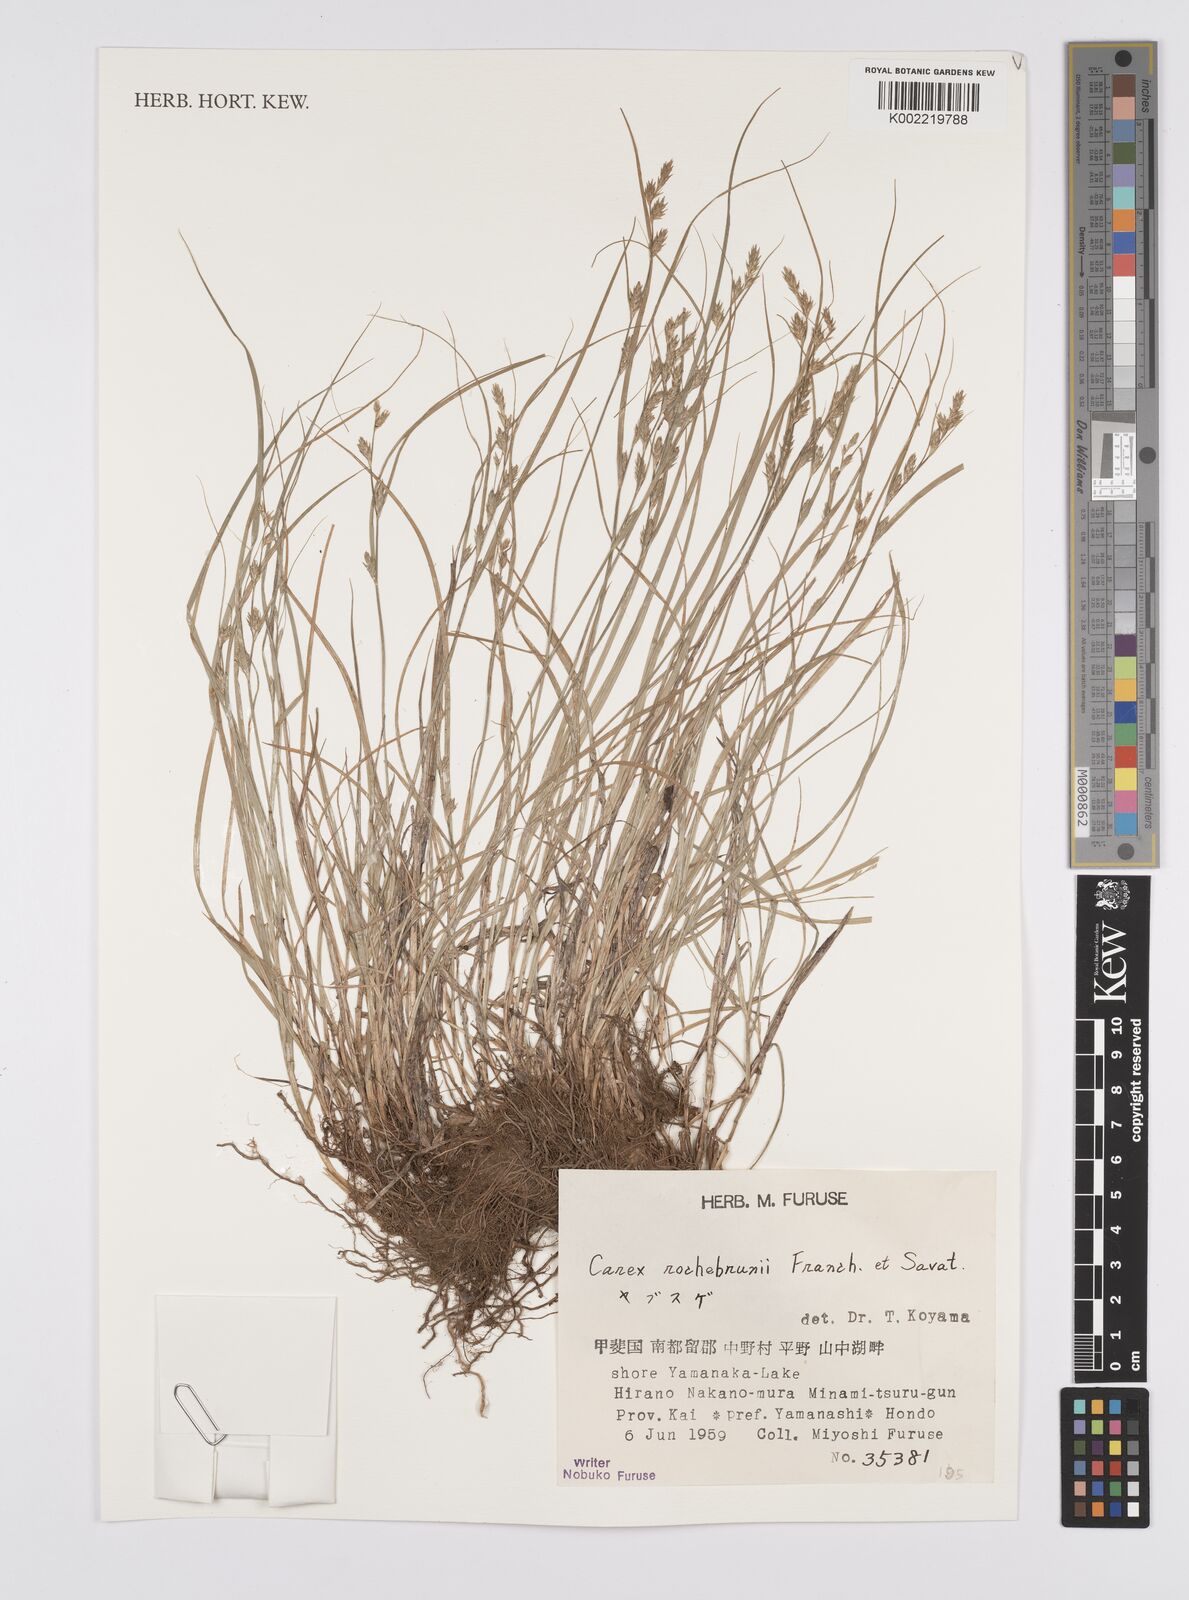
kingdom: Plantae
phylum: Tracheophyta
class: Liliopsida
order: Poales
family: Cyperaceae
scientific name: Cyperaceae
